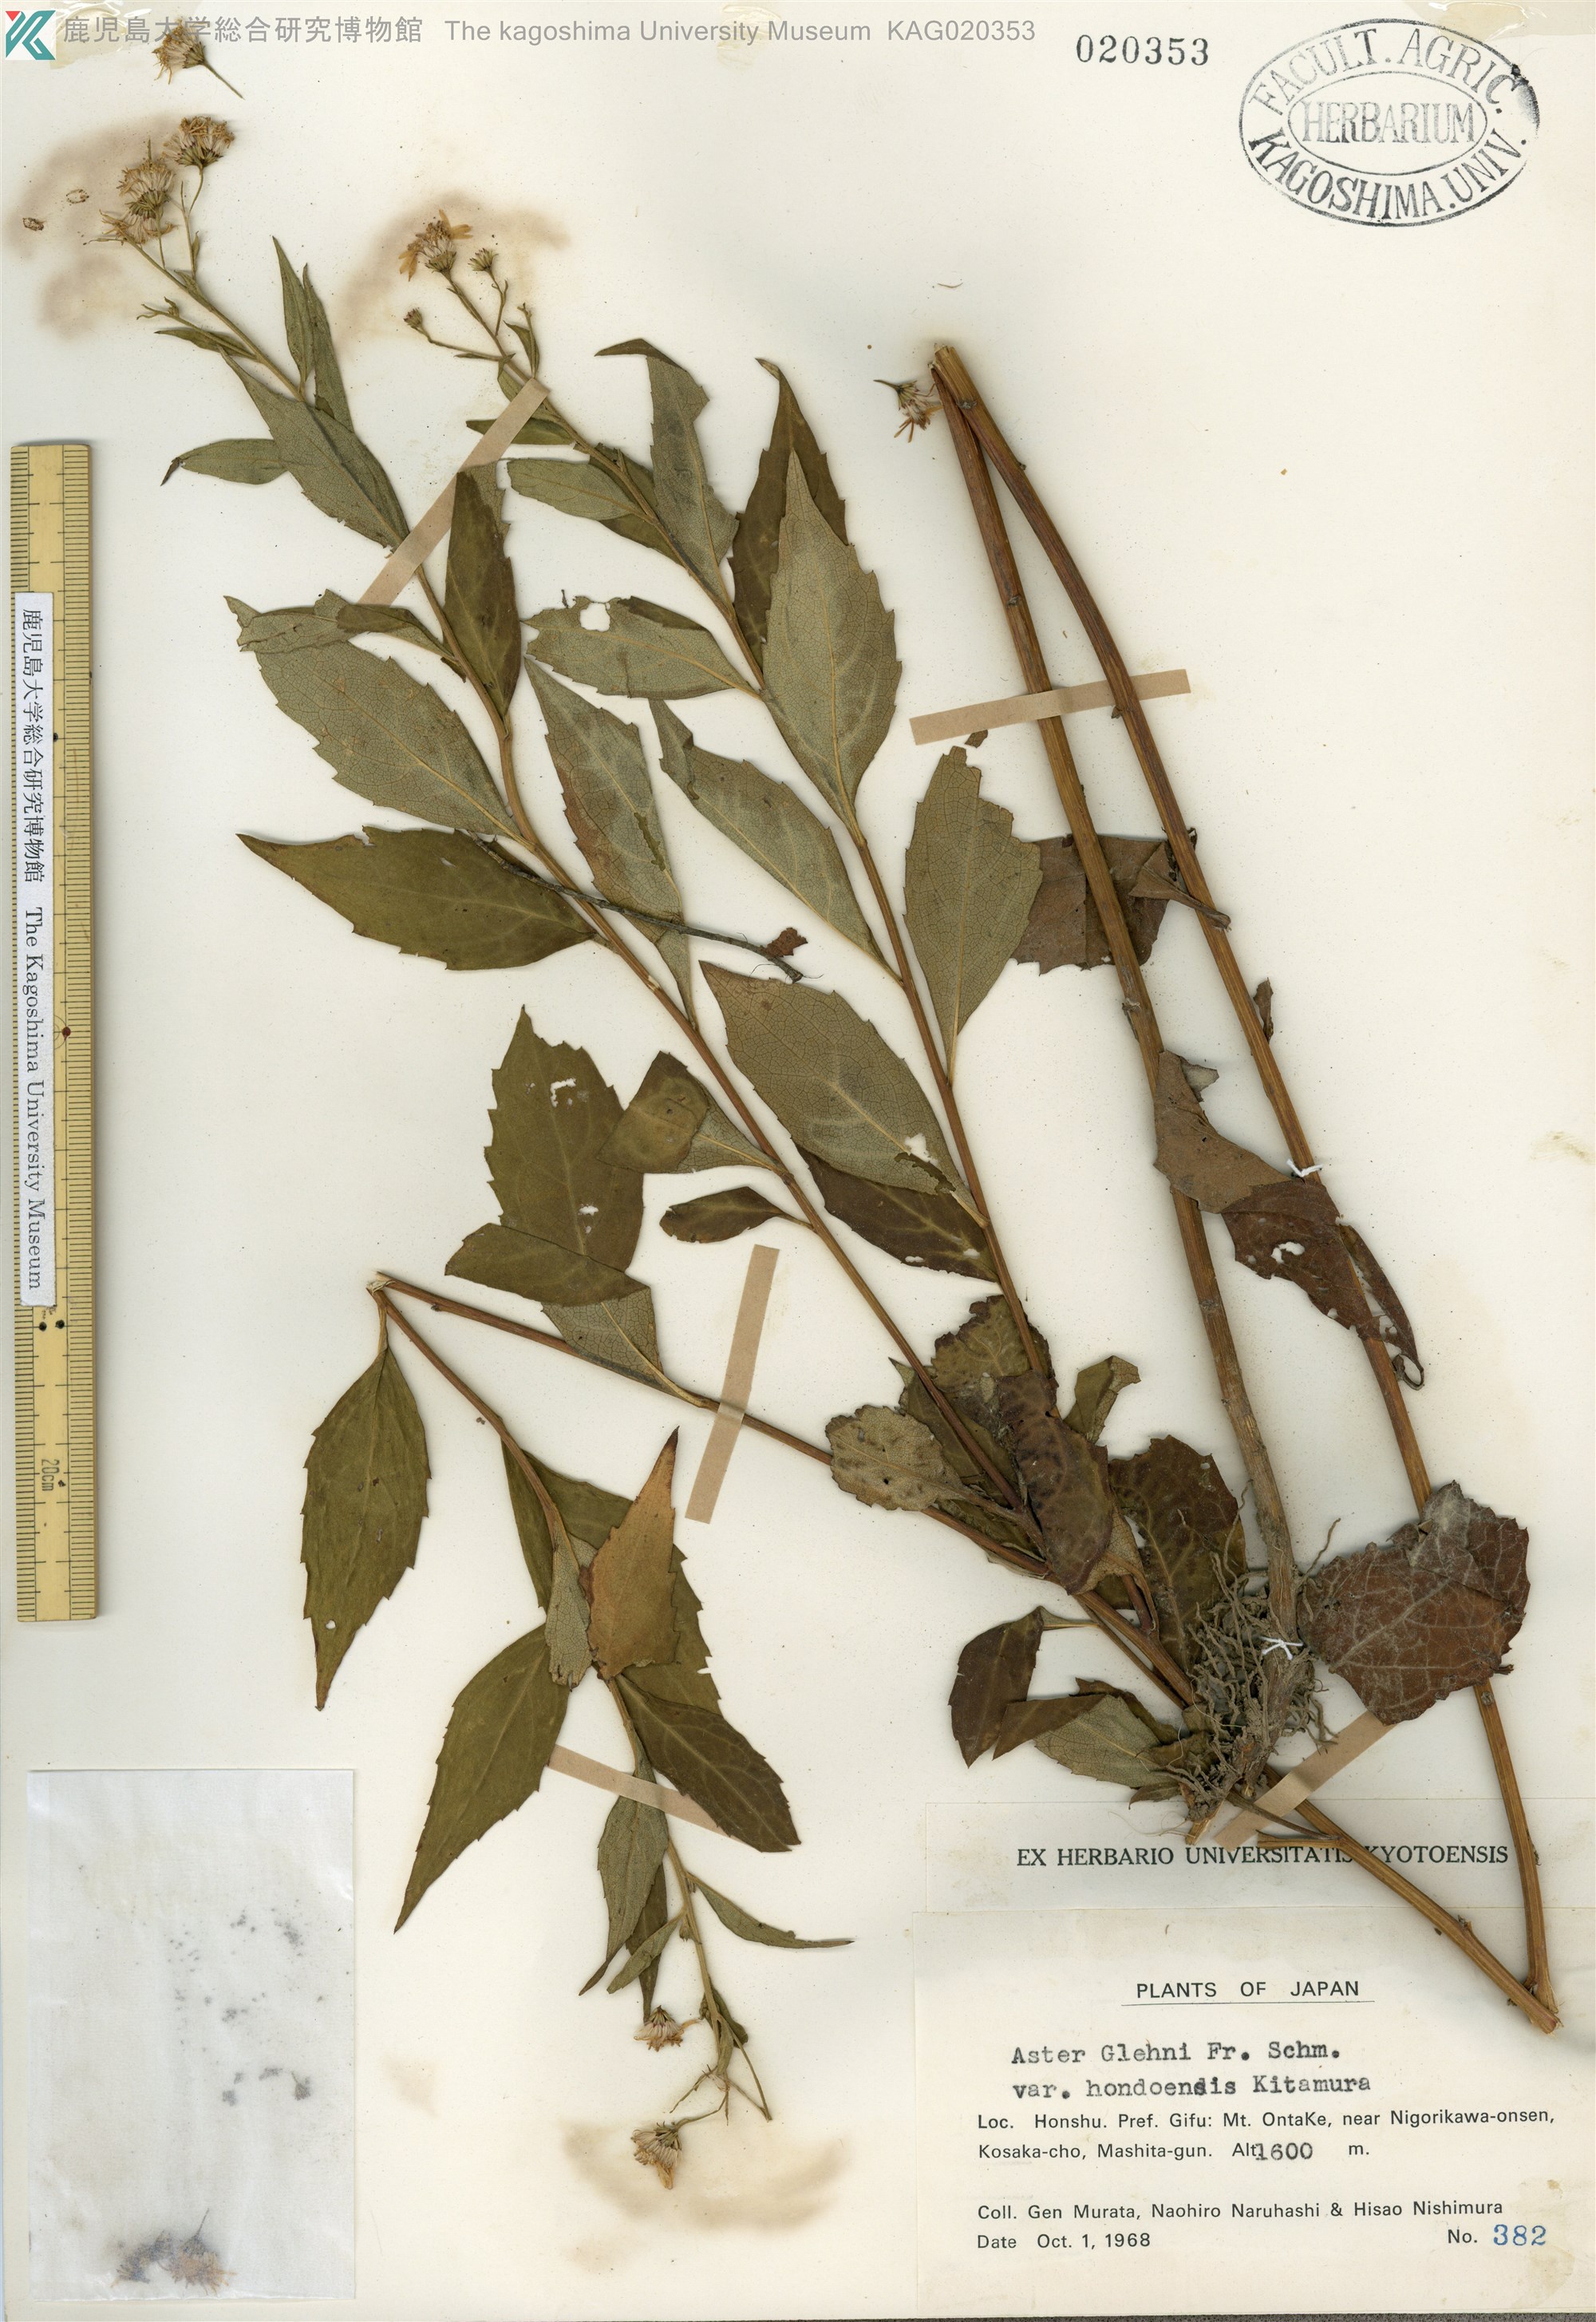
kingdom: Plantae
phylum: Tracheophyta
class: Magnoliopsida
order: Asterales
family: Asteraceae
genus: Kitamuria
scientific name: Kitamuria glehnii
